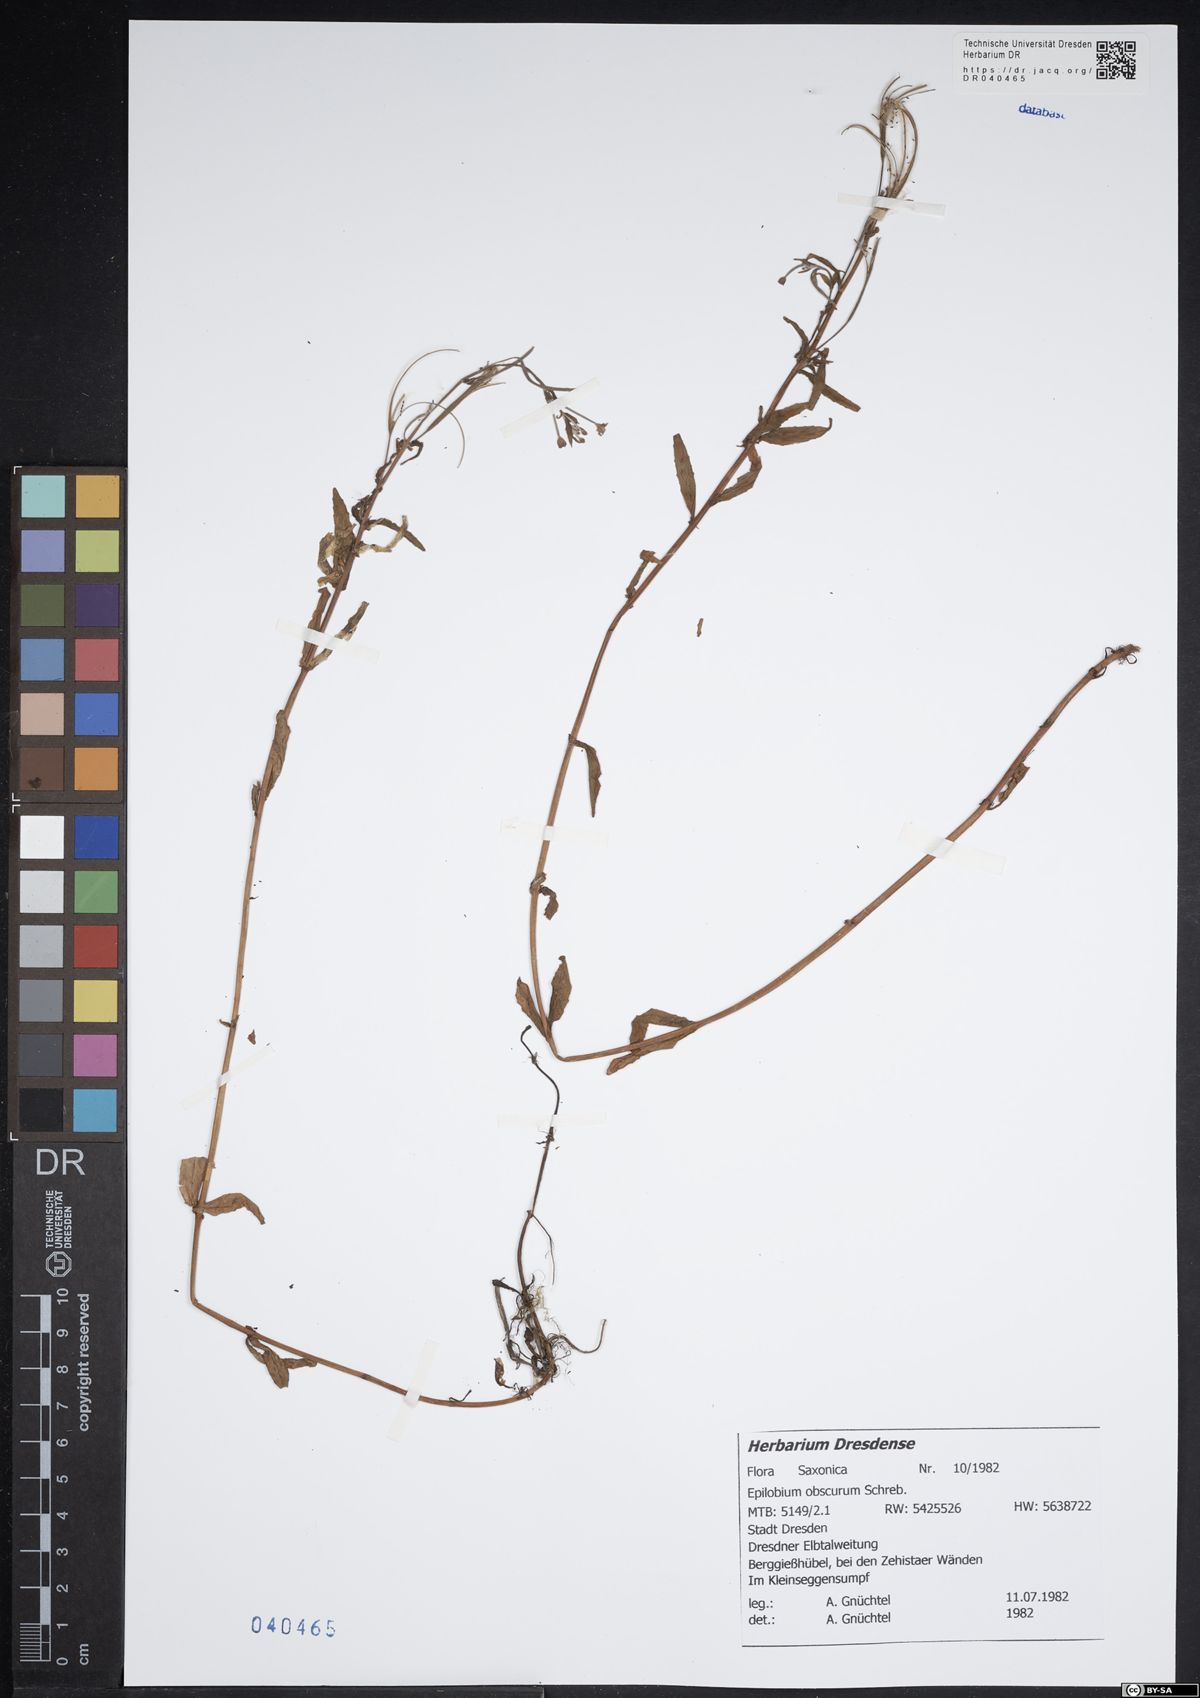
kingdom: Plantae
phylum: Tracheophyta
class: Magnoliopsida
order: Myrtales
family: Onagraceae
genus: Epilobium
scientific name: Epilobium obscurum
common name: Short-fruited willowherb
